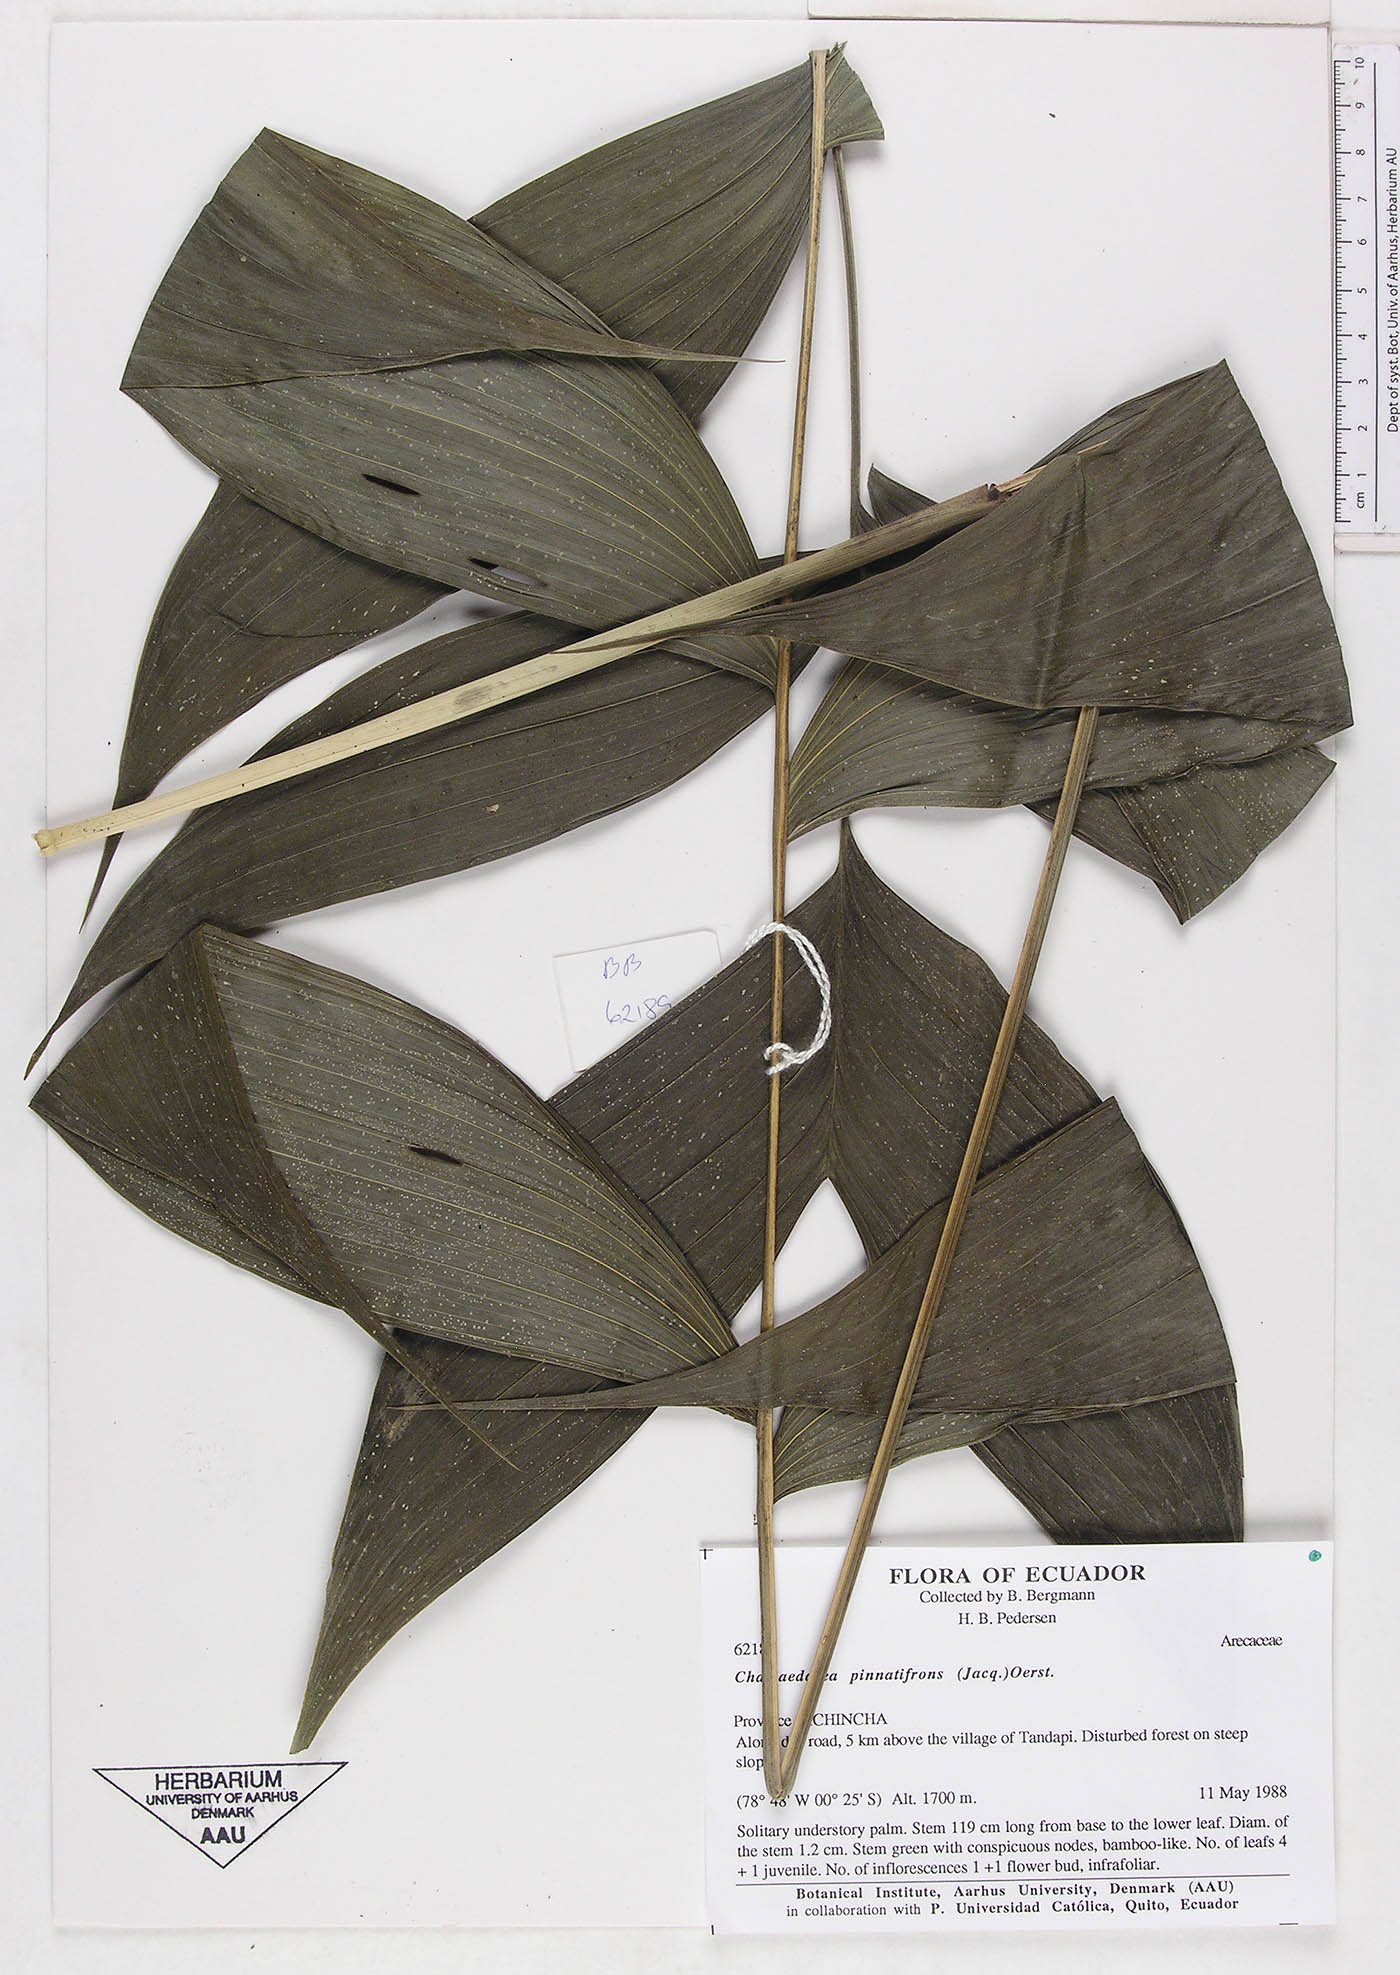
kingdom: Plantae
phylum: Tracheophyta
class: Liliopsida
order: Arecales
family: Arecaceae
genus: Chamaedorea
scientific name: Chamaedorea pinnatifrons
